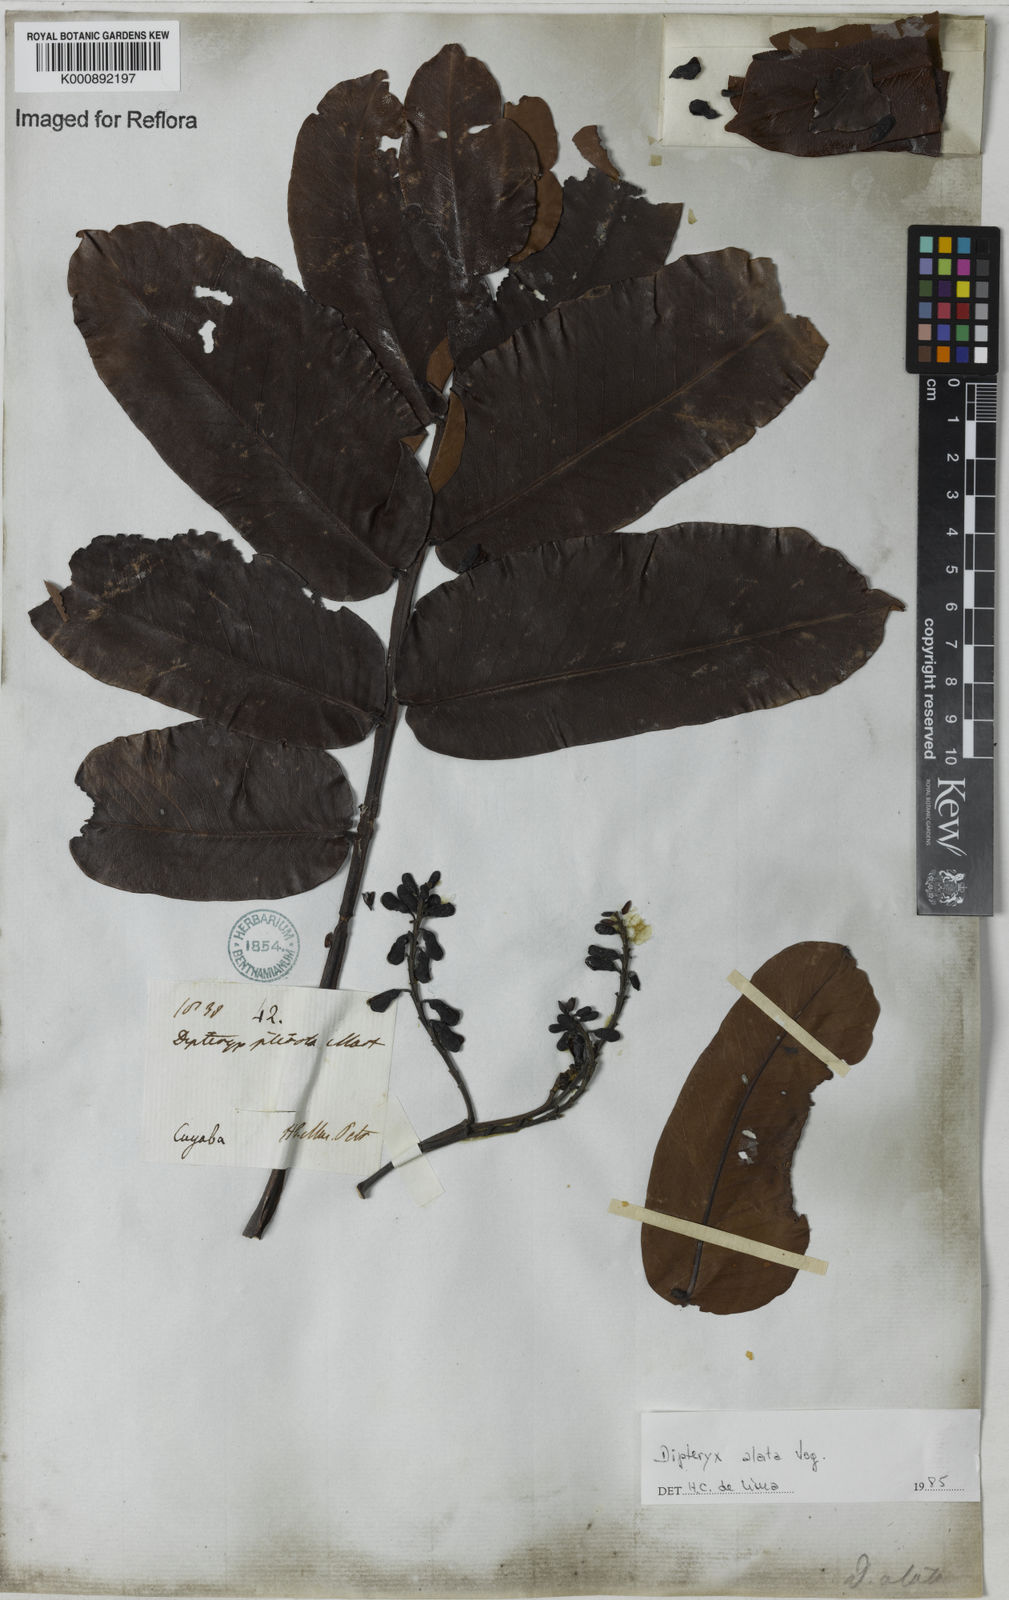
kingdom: Plantae
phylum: Tracheophyta
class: Magnoliopsida
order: Fabales
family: Fabaceae
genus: Dipteryx
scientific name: Dipteryx alata
